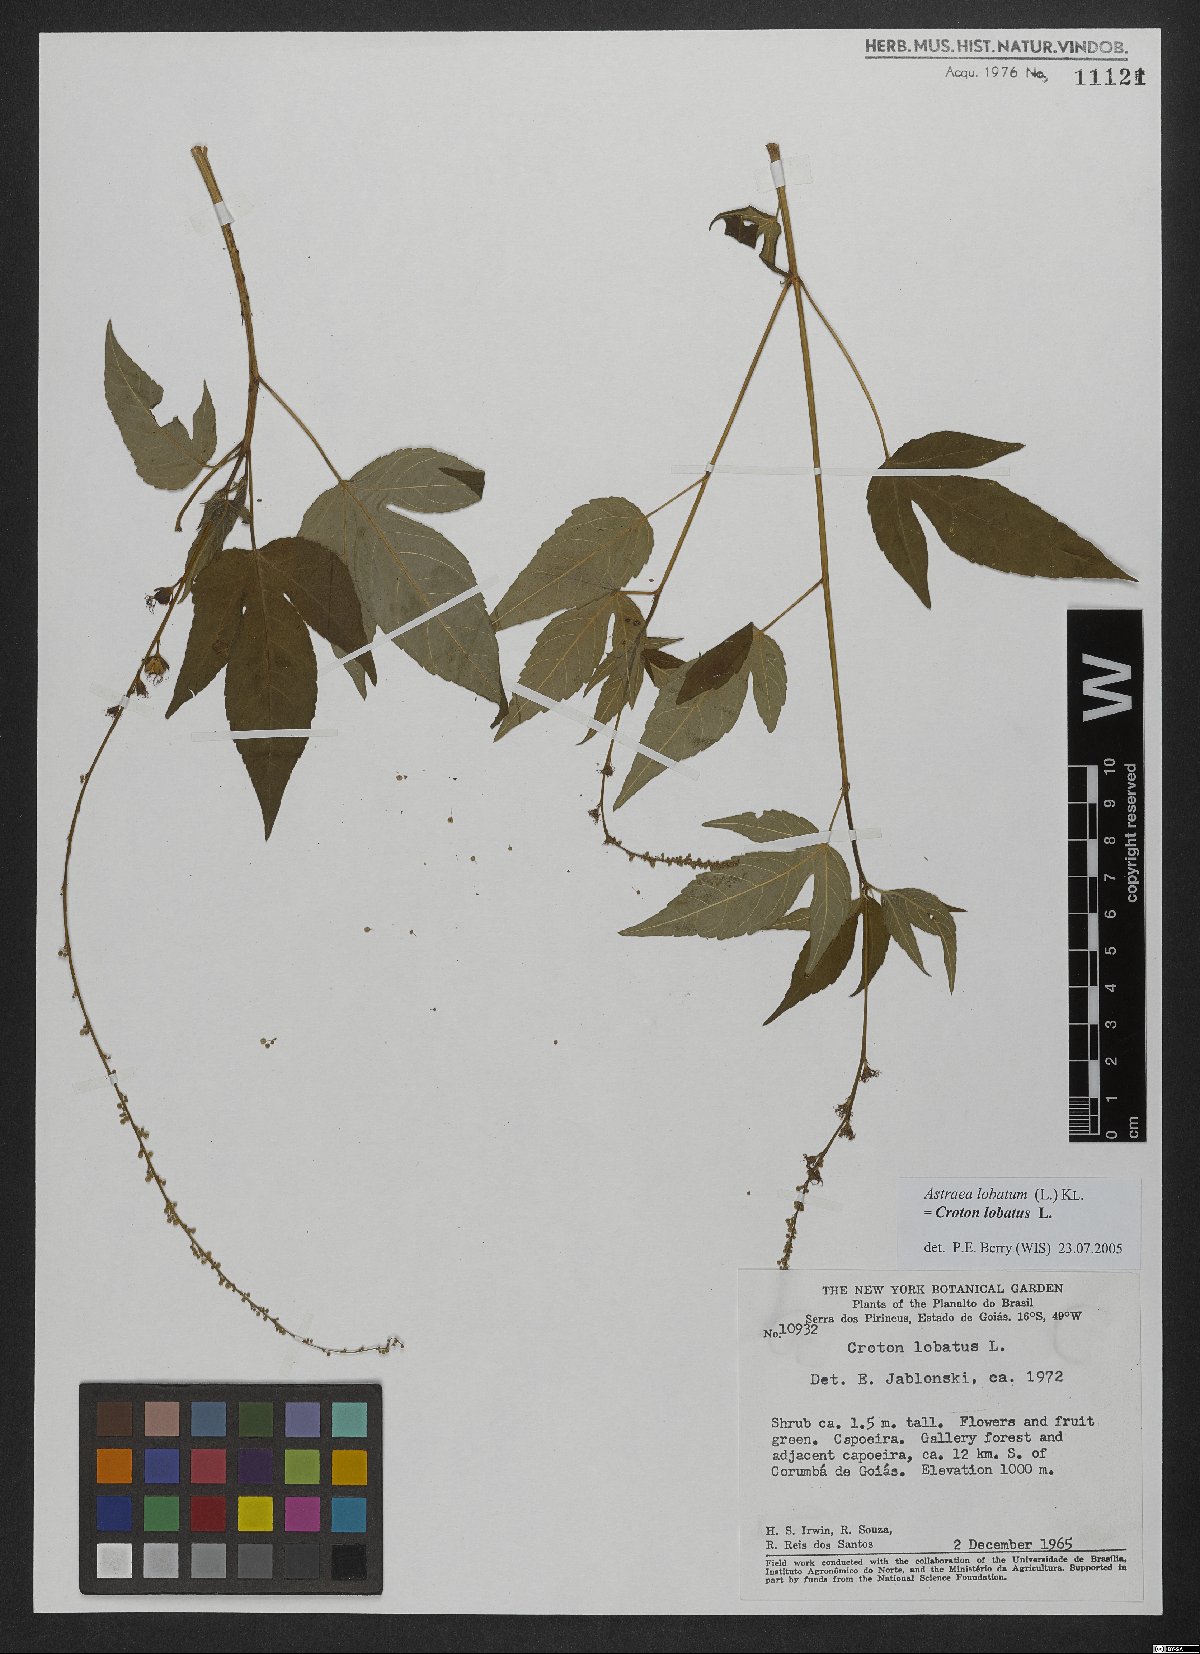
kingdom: Plantae
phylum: Tracheophyta
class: Magnoliopsida
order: Malpighiales
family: Euphorbiaceae
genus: Croton
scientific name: Croton lobatus
